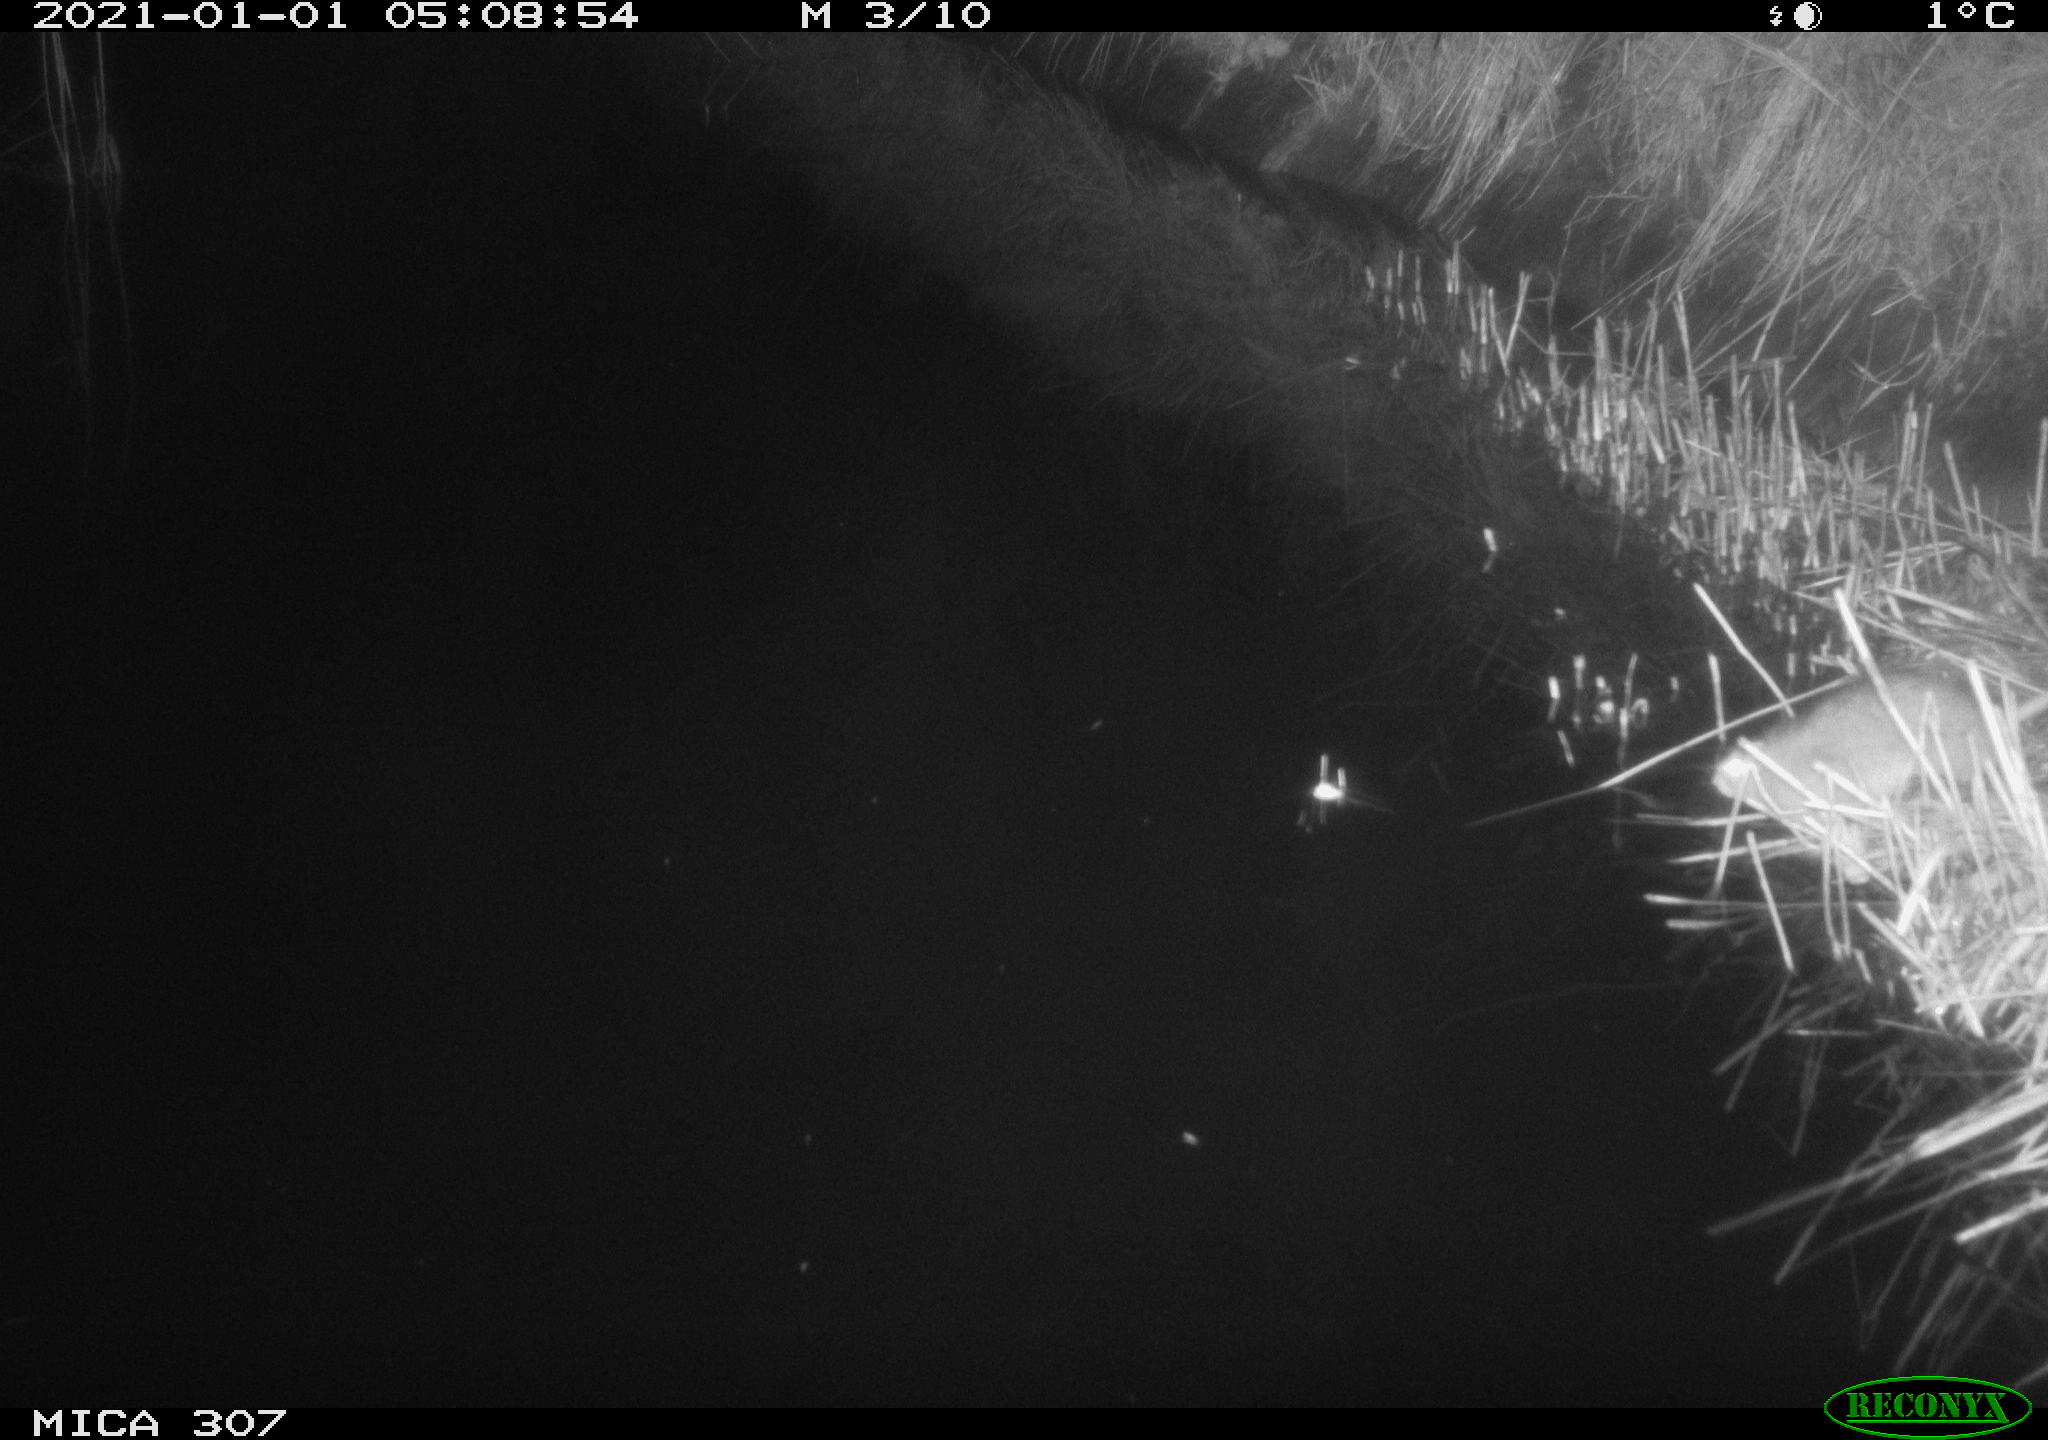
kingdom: Animalia
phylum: Chordata
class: Mammalia
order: Rodentia
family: Muridae
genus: Rattus
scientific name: Rattus norvegicus
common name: Brown rat
